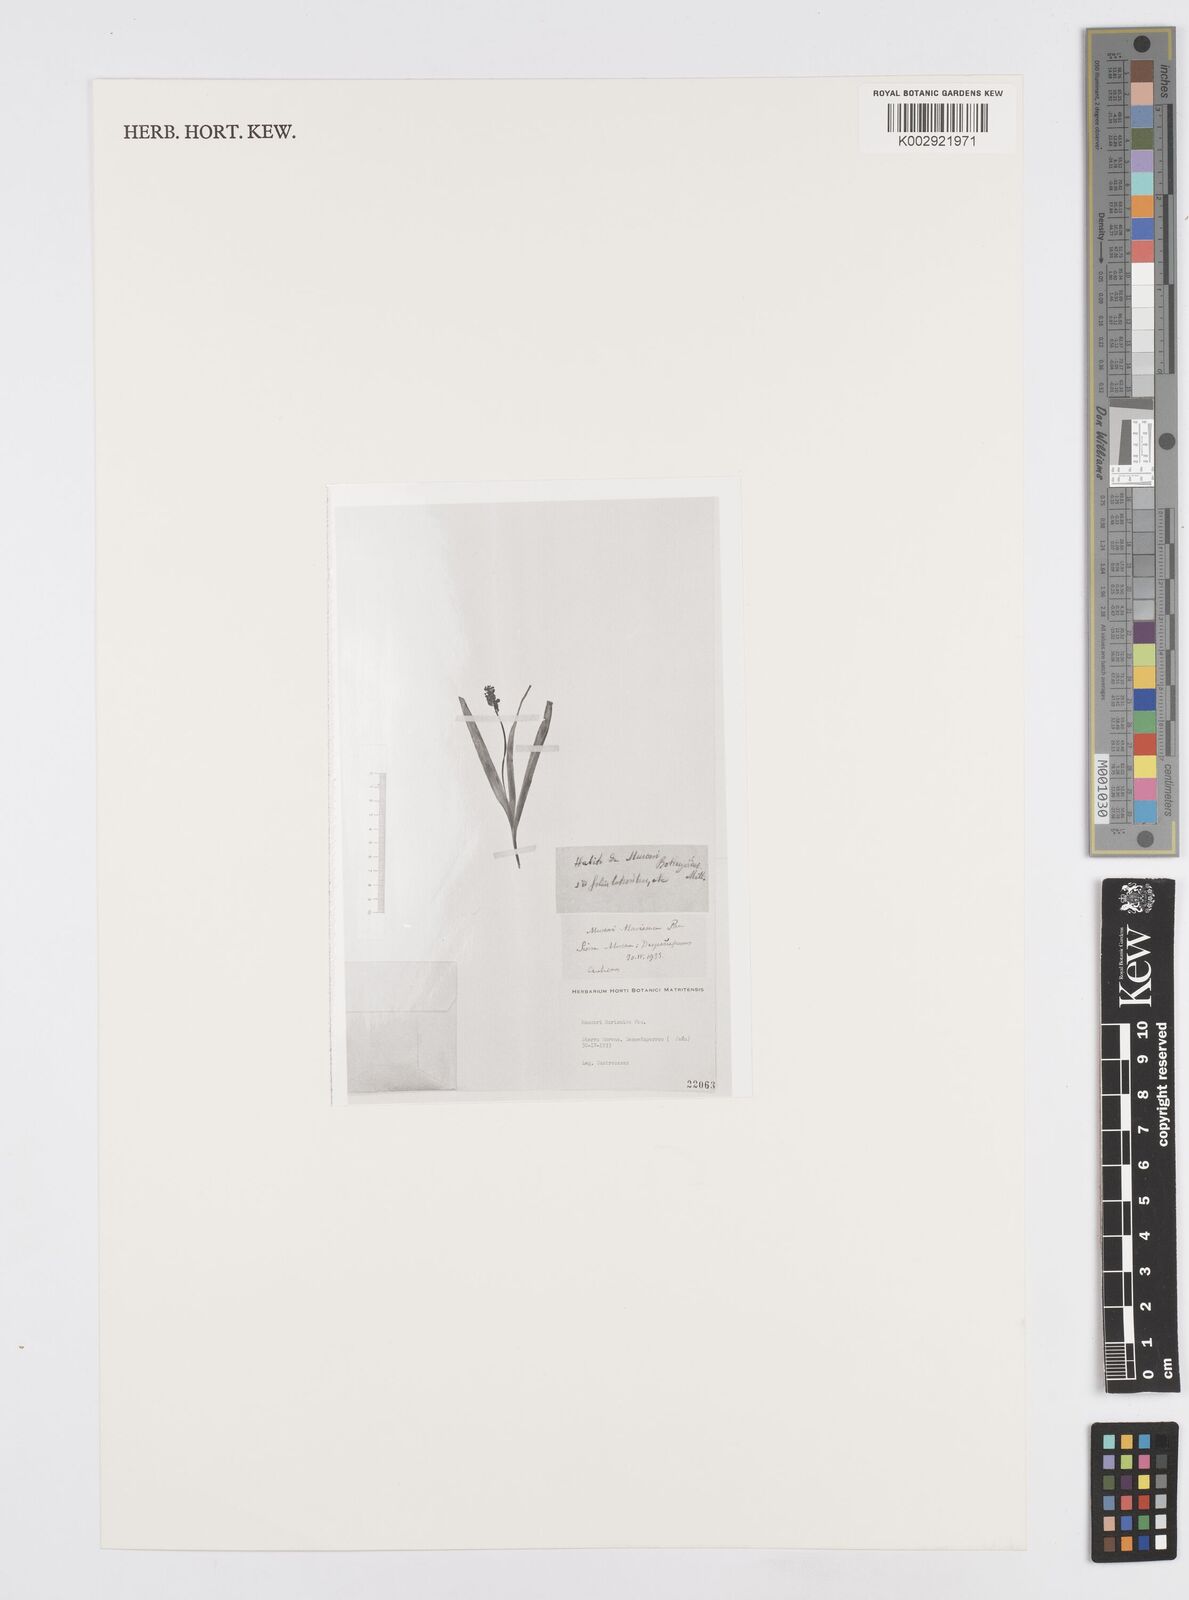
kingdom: Plantae
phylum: Tracheophyta
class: Liliopsida
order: Asparagales
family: Asparagaceae
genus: Muscari
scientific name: Muscari comosum
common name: Tassel hyacinth
